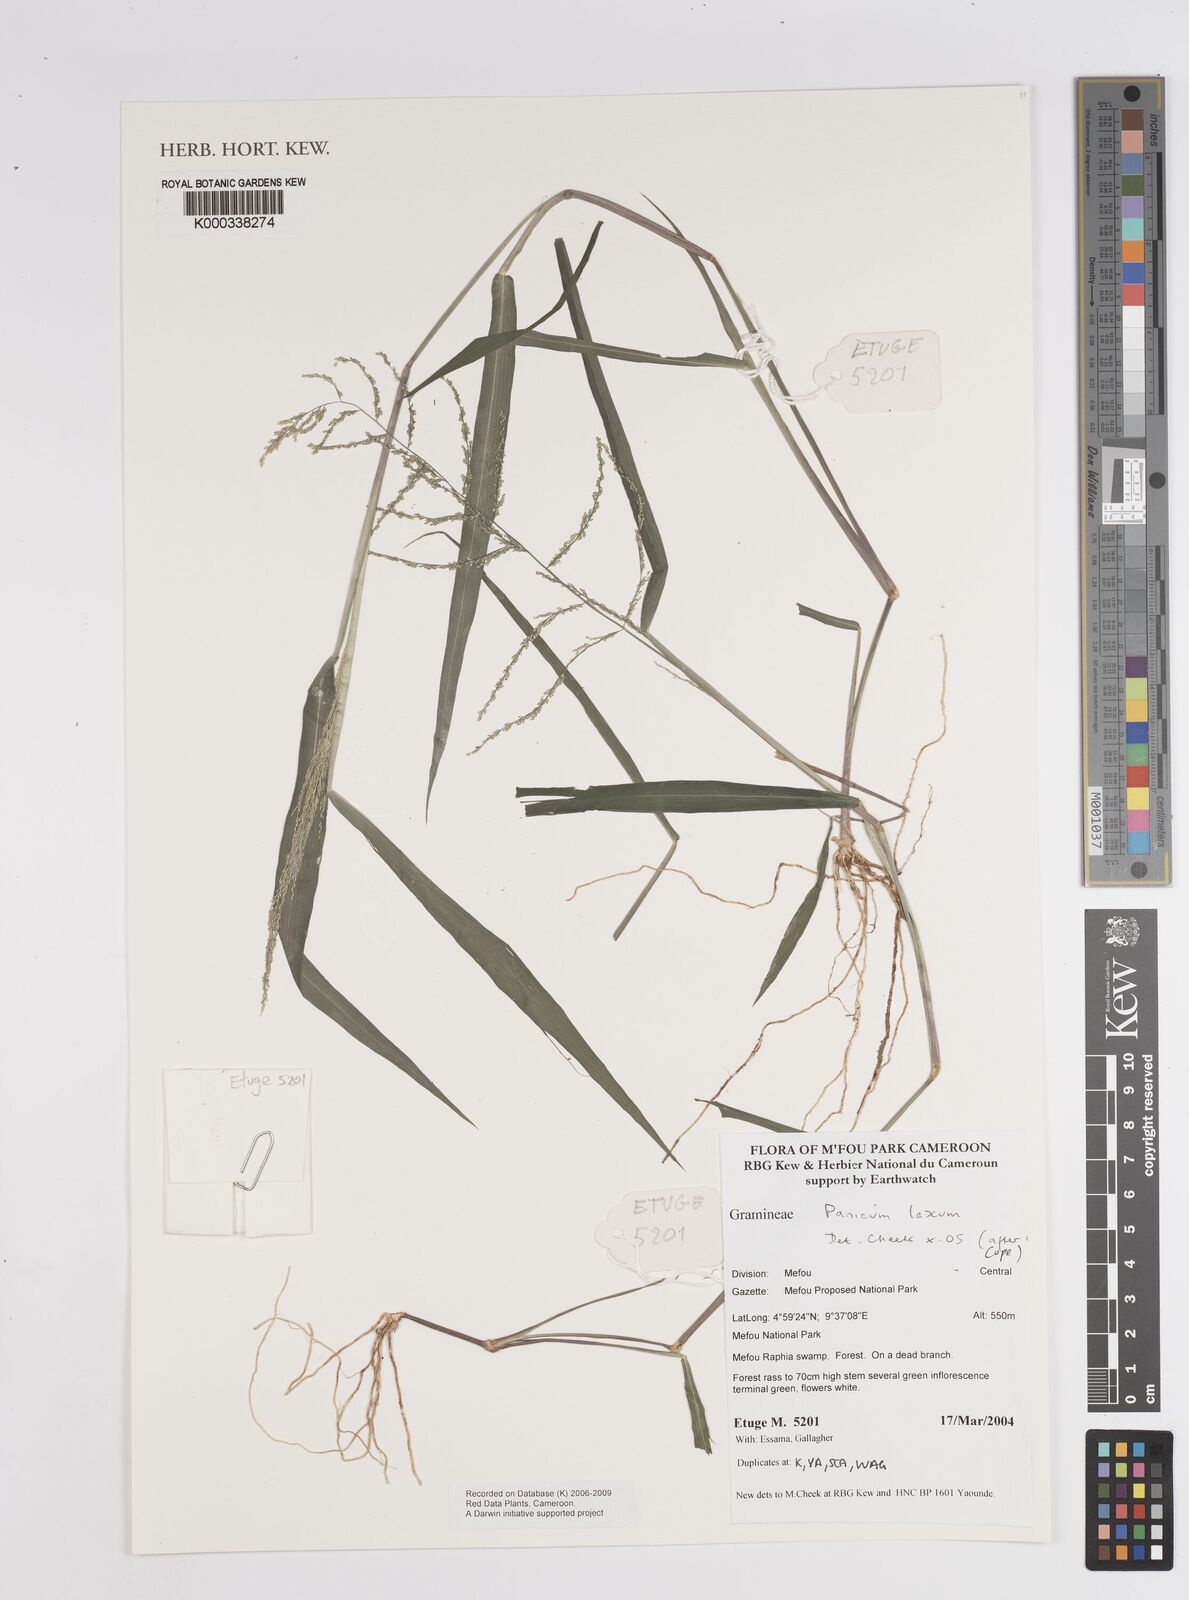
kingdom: Plantae
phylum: Tracheophyta
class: Liliopsida
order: Poales
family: Poaceae
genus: Steinchisma
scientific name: Steinchisma laxum
